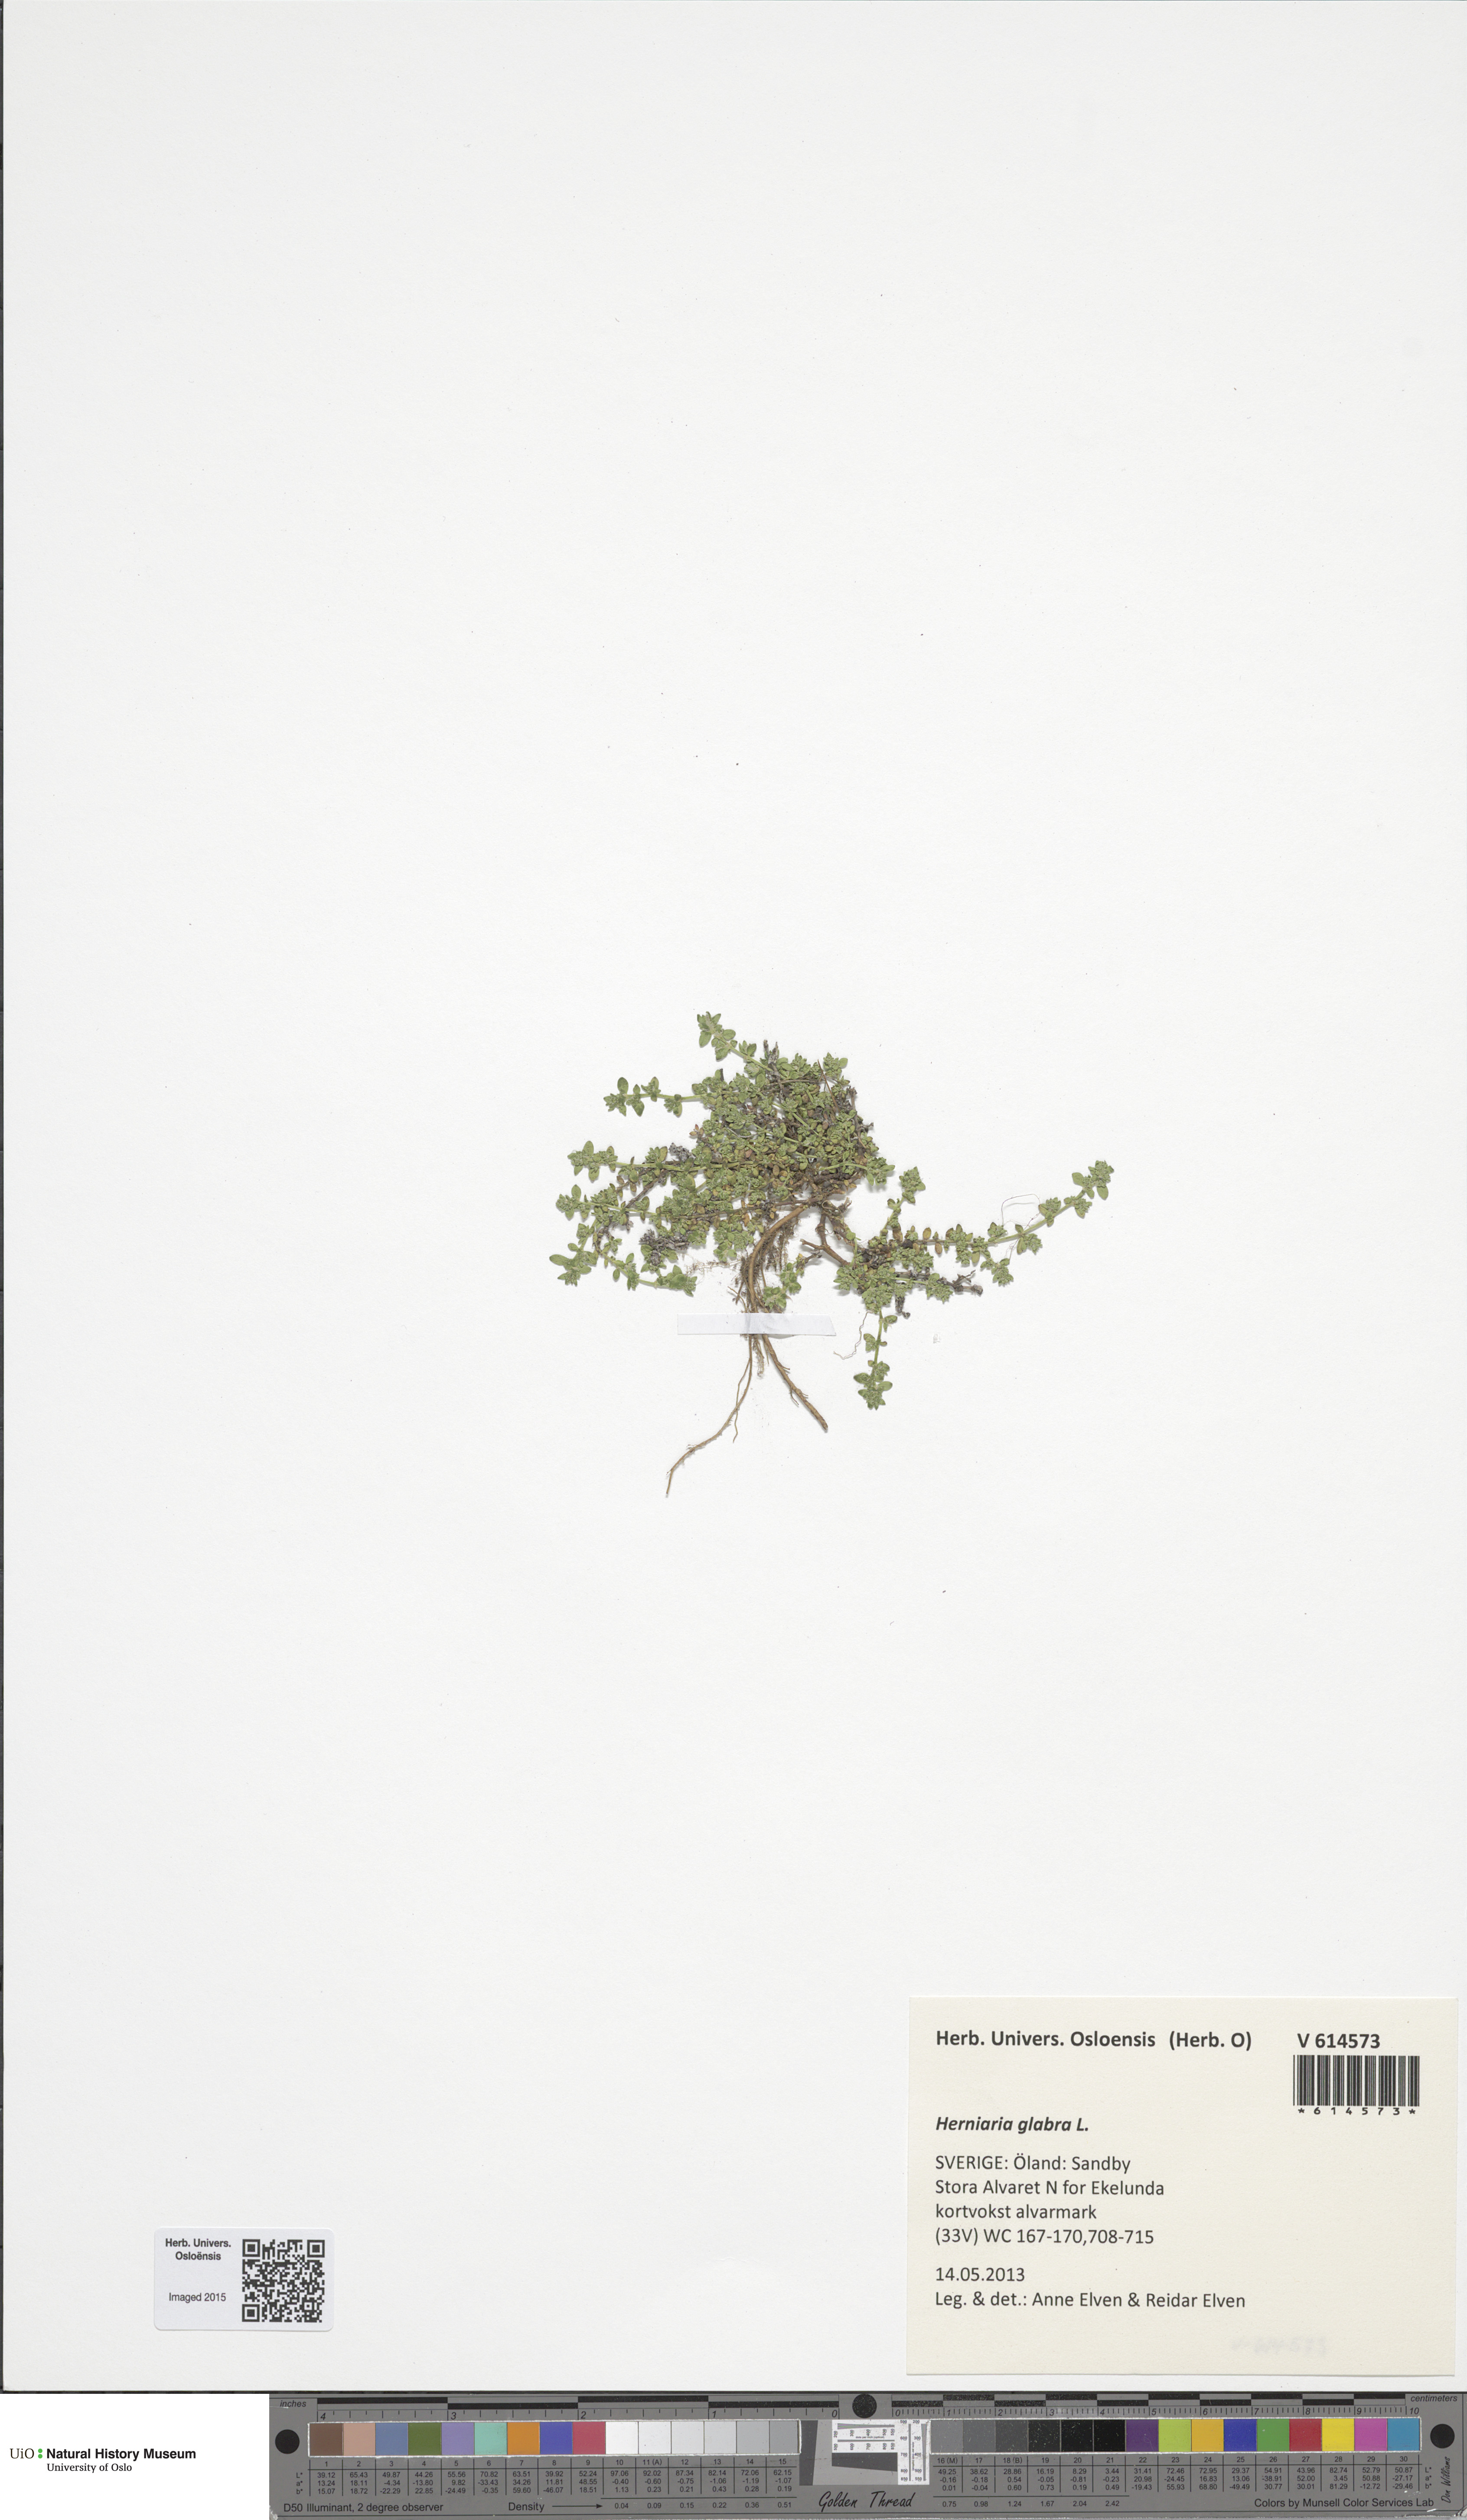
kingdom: Plantae
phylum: Tracheophyta
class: Magnoliopsida
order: Caryophyllales
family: Caryophyllaceae
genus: Herniaria
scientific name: Herniaria glabra
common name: Smooth rupturewort
